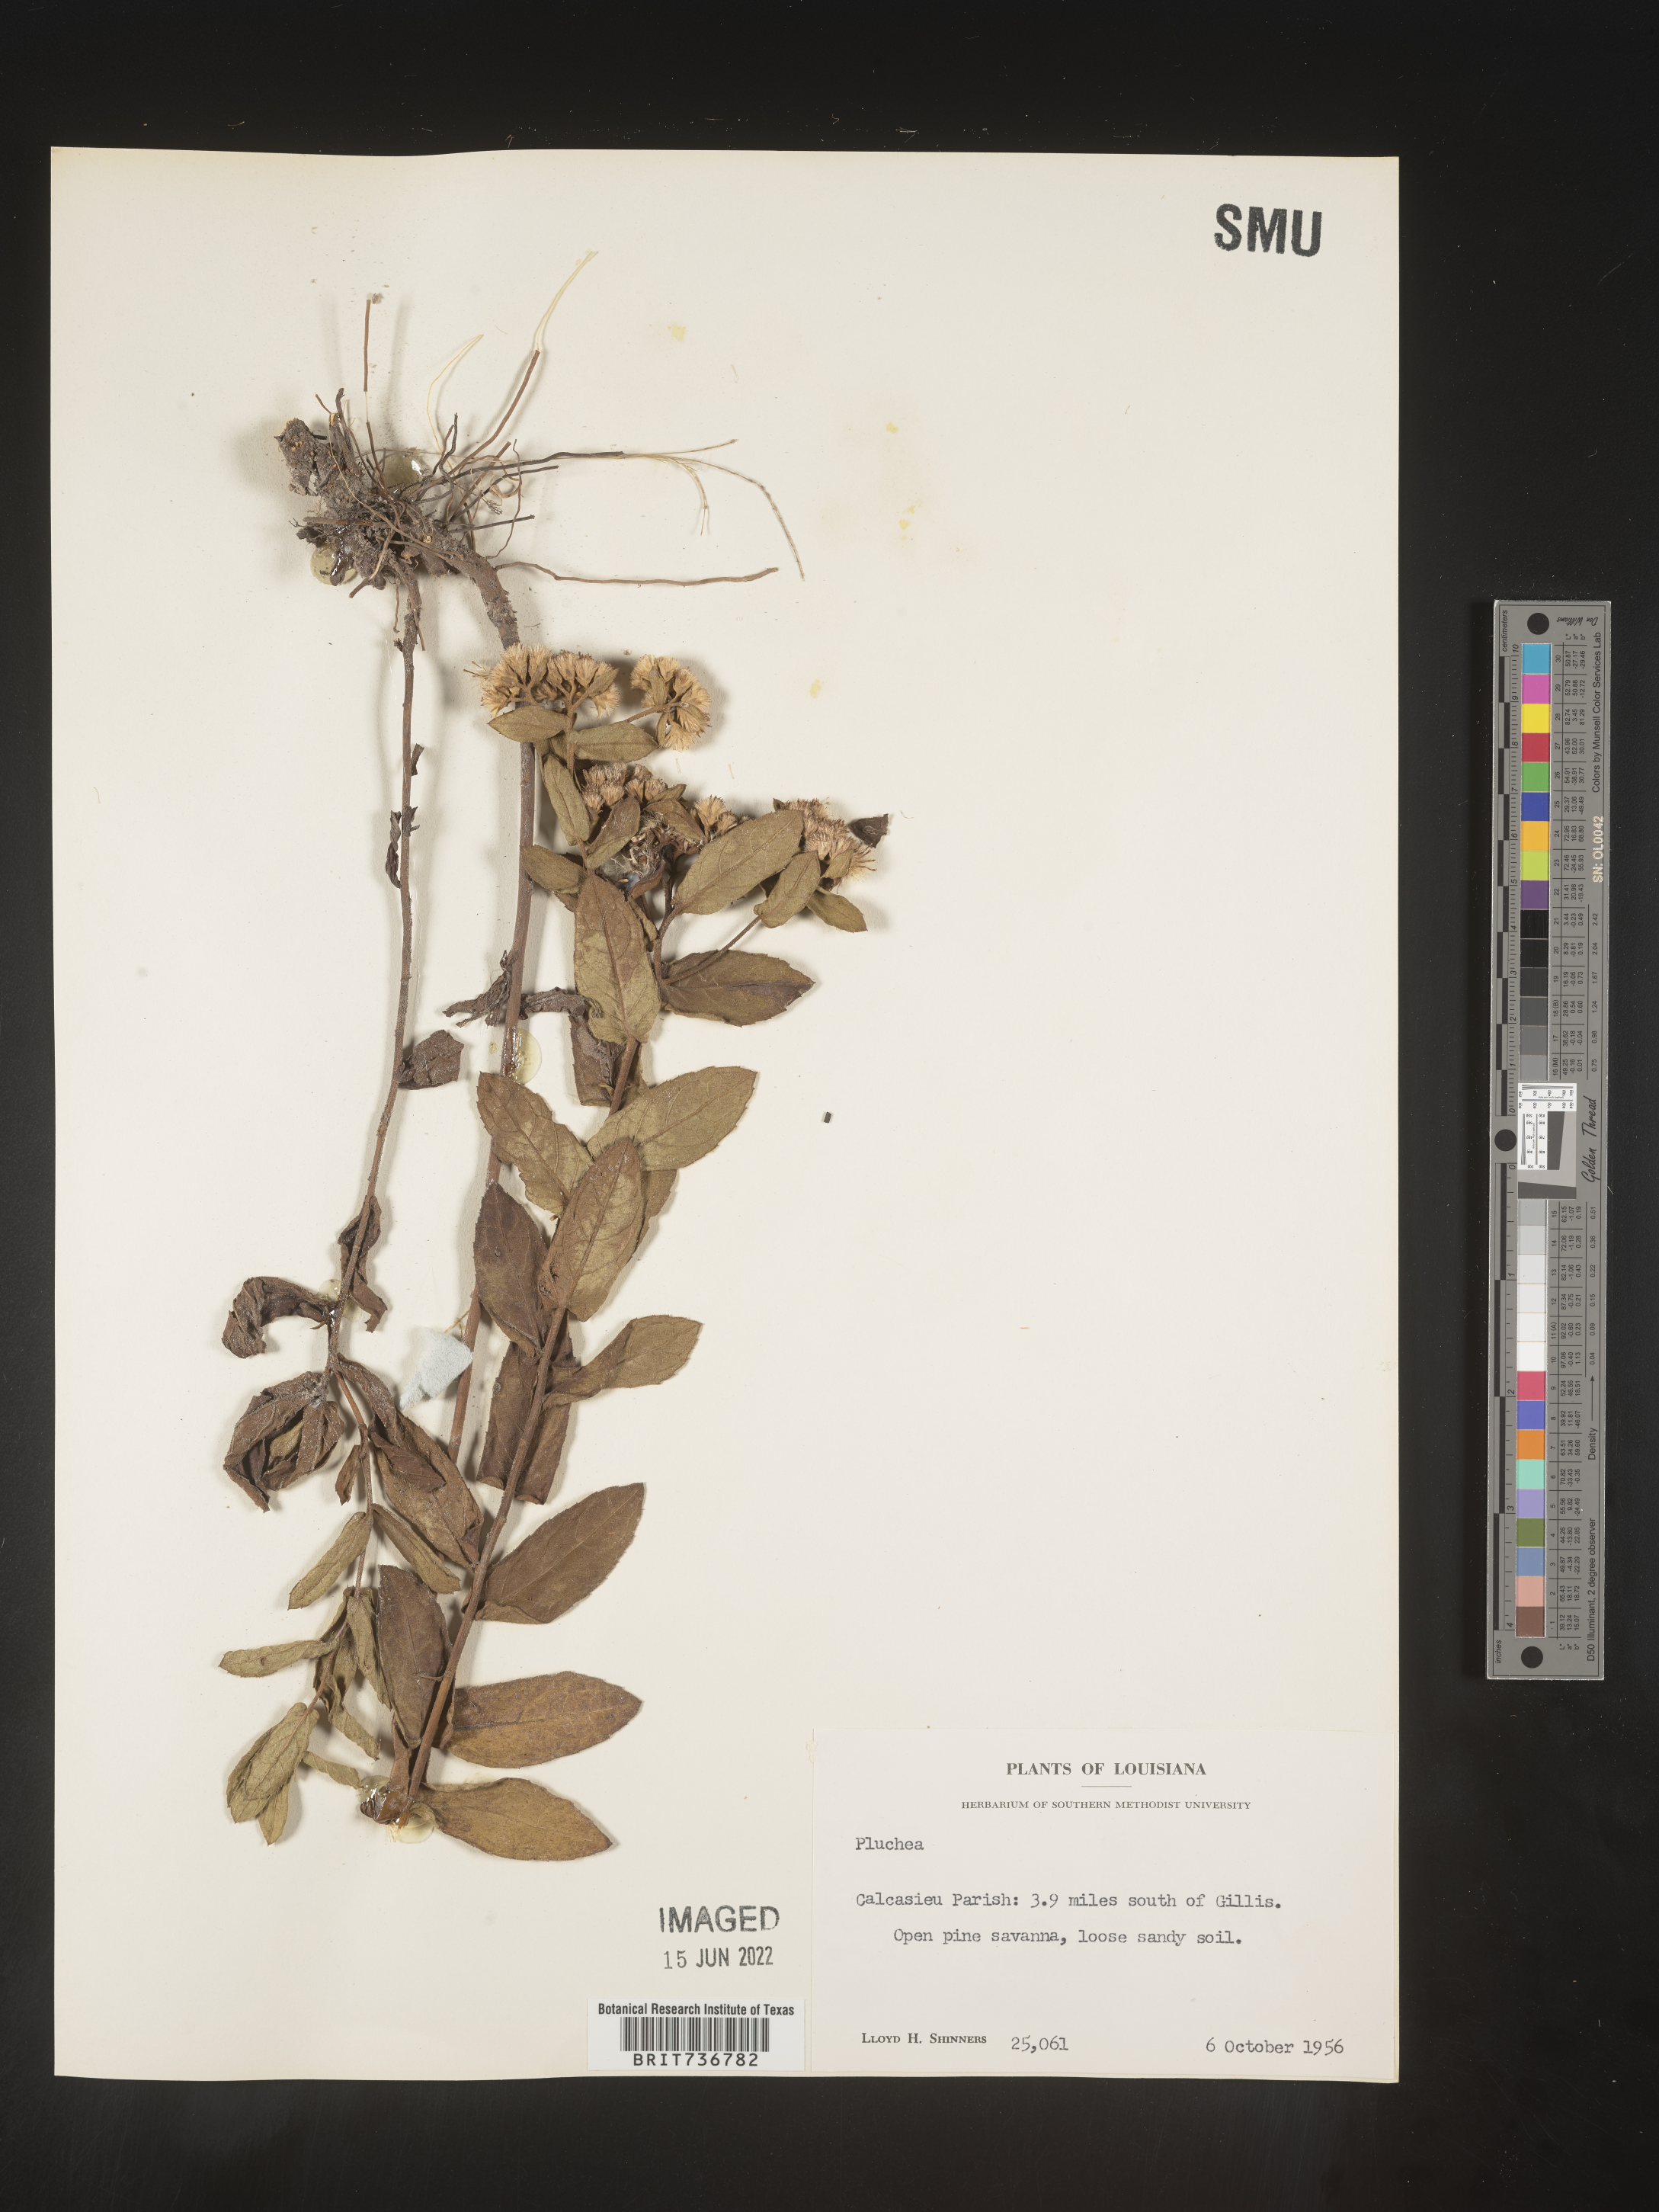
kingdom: Plantae
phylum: Tracheophyta
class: Magnoliopsida
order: Asterales
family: Asteraceae
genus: Pluchea
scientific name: Pluchea baccharis
